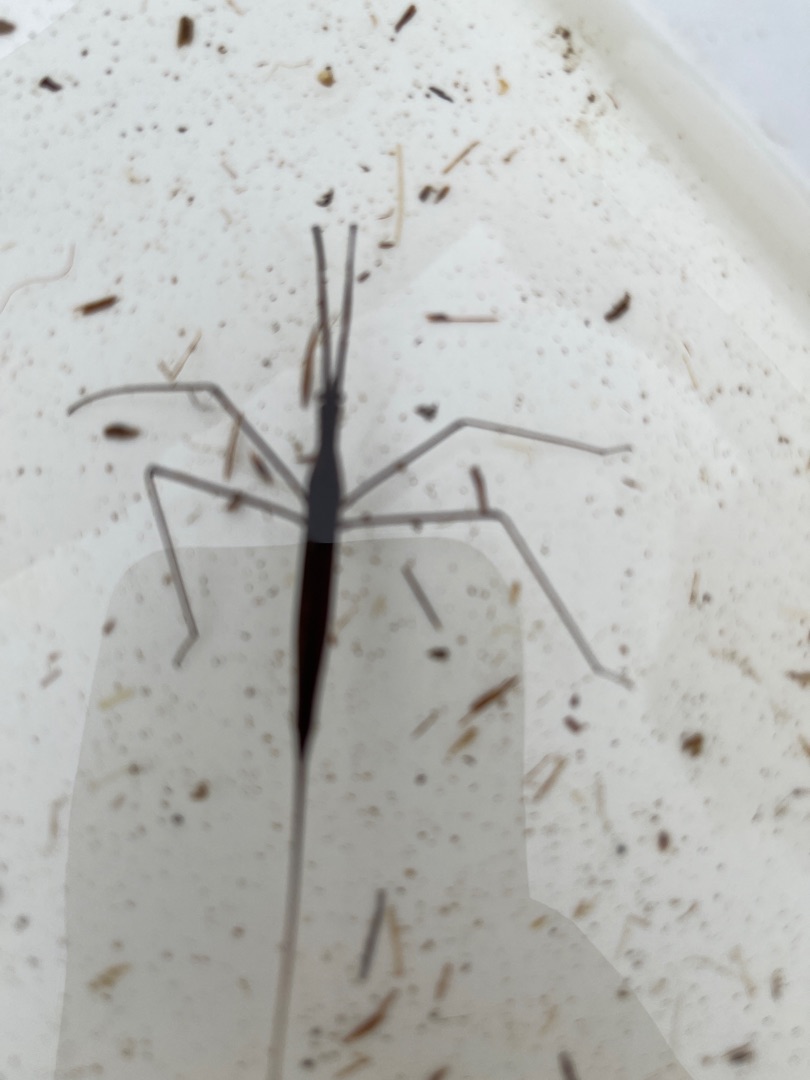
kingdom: Animalia
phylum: Arthropoda
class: Insecta
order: Hemiptera
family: Nepidae
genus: Ranatra
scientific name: Ranatra linearis
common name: Stavtæge
